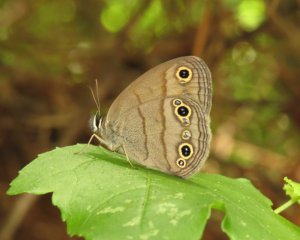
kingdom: Animalia
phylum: Arthropoda
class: Insecta
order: Lepidoptera
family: Nymphalidae
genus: Euptychia
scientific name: Euptychia cymela
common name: Little Wood Satyr
